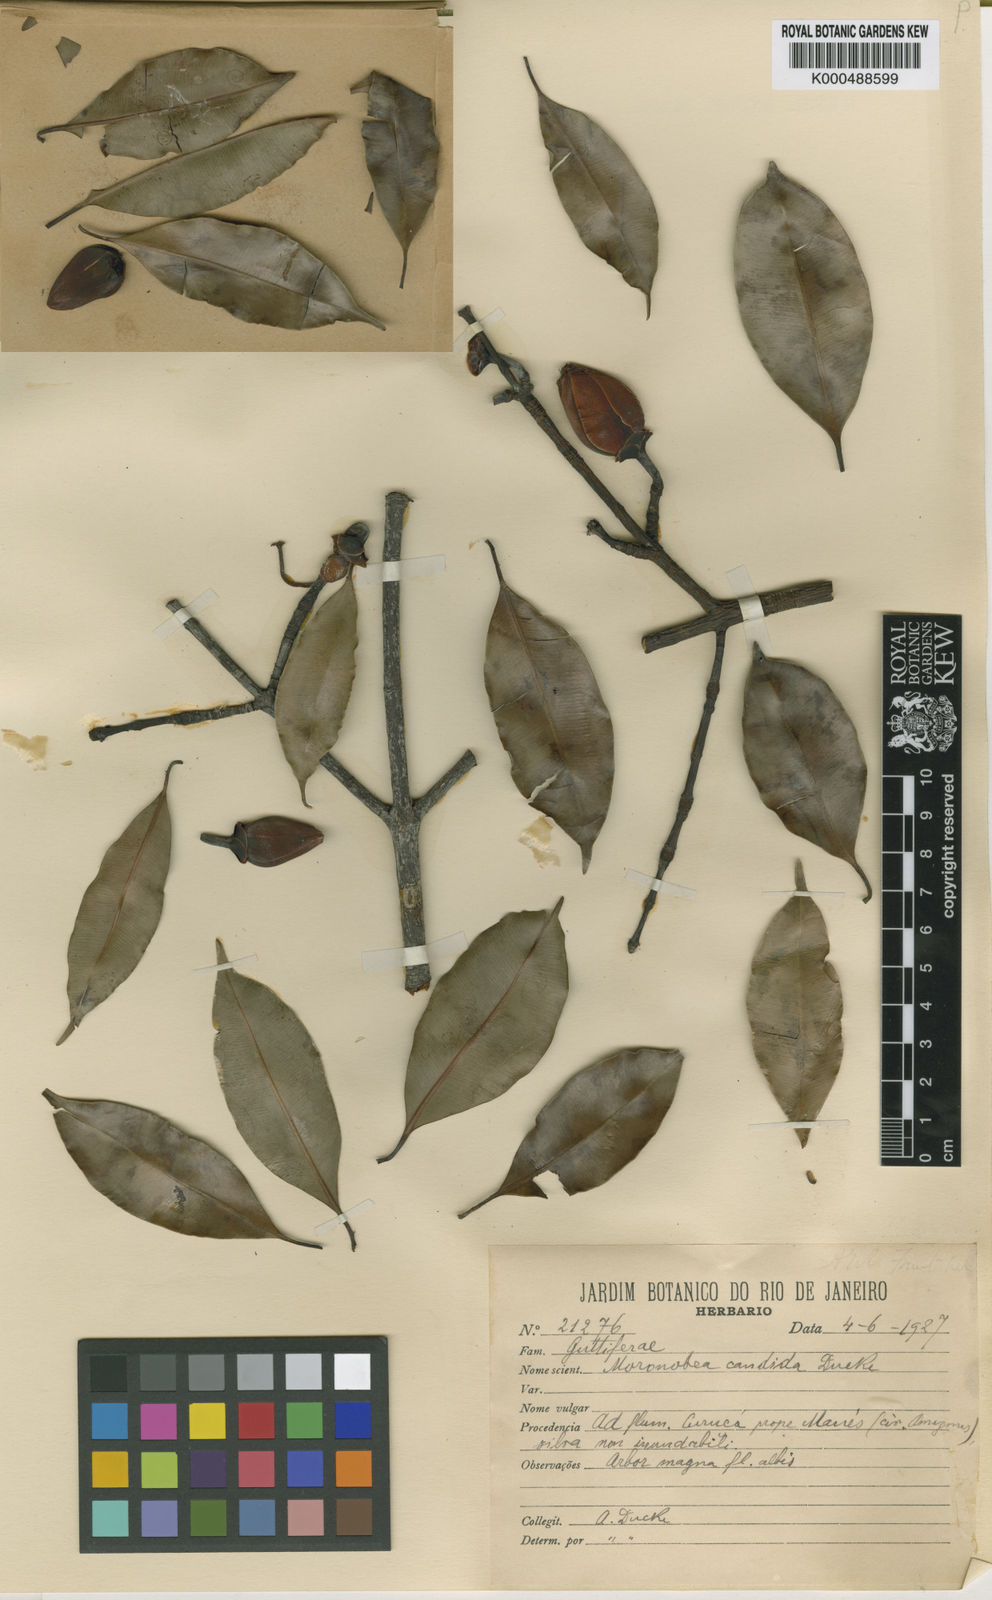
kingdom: Plantae
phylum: Tracheophyta
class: Magnoliopsida
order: Malpighiales
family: Clusiaceae
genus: Moronobea
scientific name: Moronobea candida
